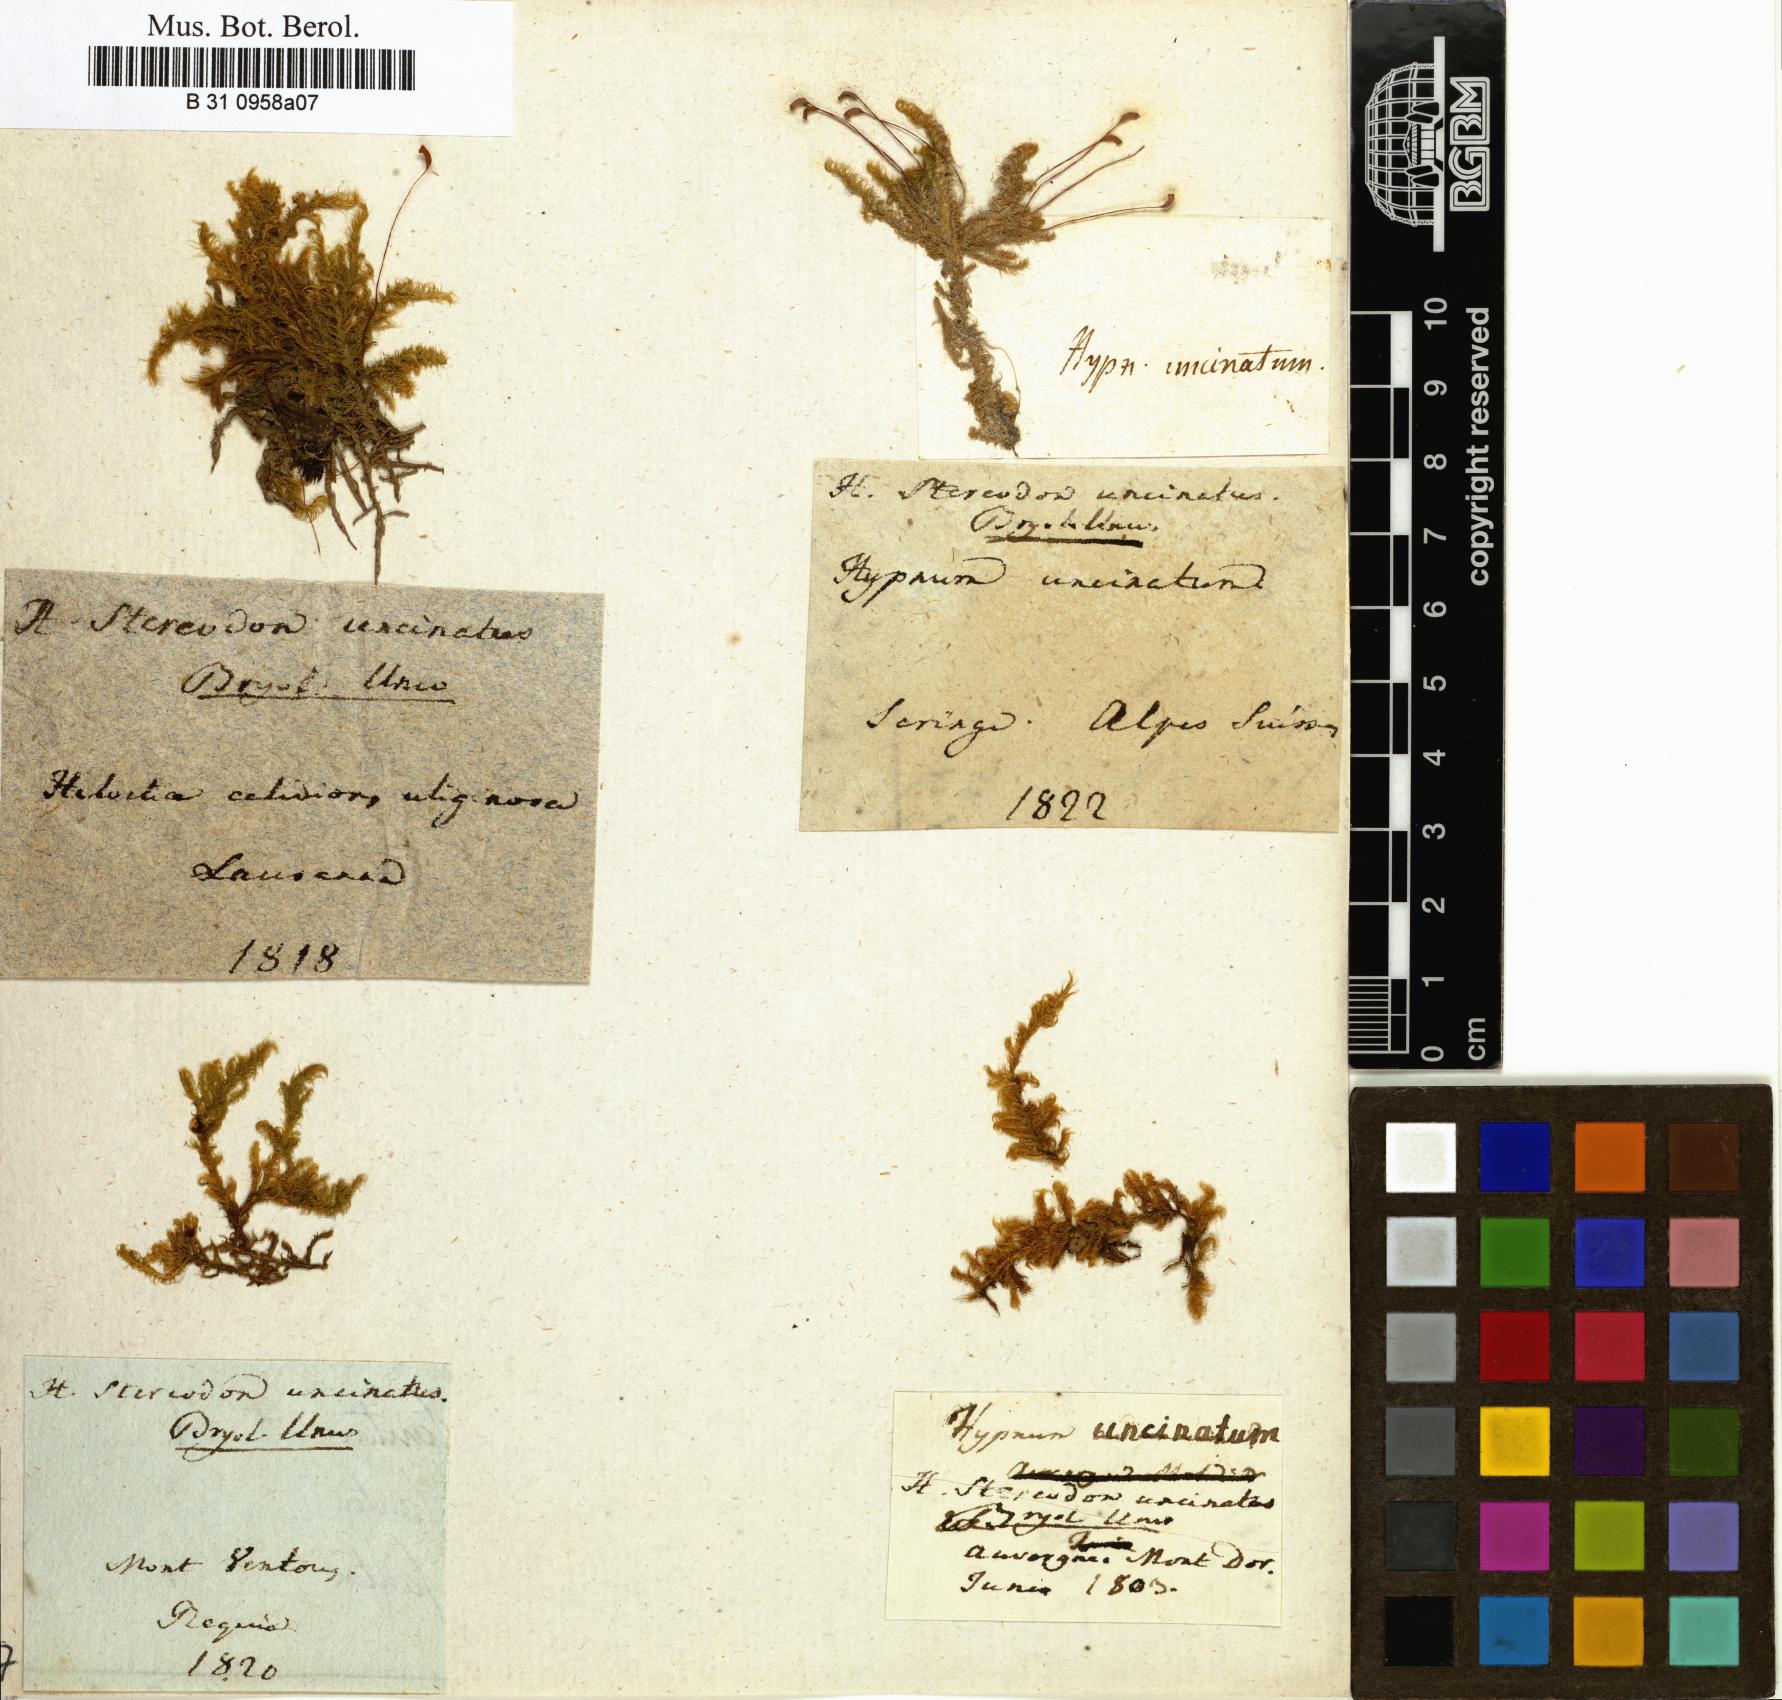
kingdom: Plantae
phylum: Bryophyta
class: Bryopsida
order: Hypnales
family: Scorpidiaceae
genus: Sanionia
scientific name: Sanionia uncinata
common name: Sickle moss
